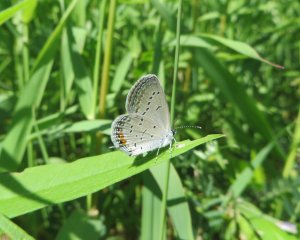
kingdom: Animalia
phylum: Arthropoda
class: Insecta
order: Lepidoptera
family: Lycaenidae
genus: Elkalyce
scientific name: Elkalyce comyntas
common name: Eastern Tailed-Blue
